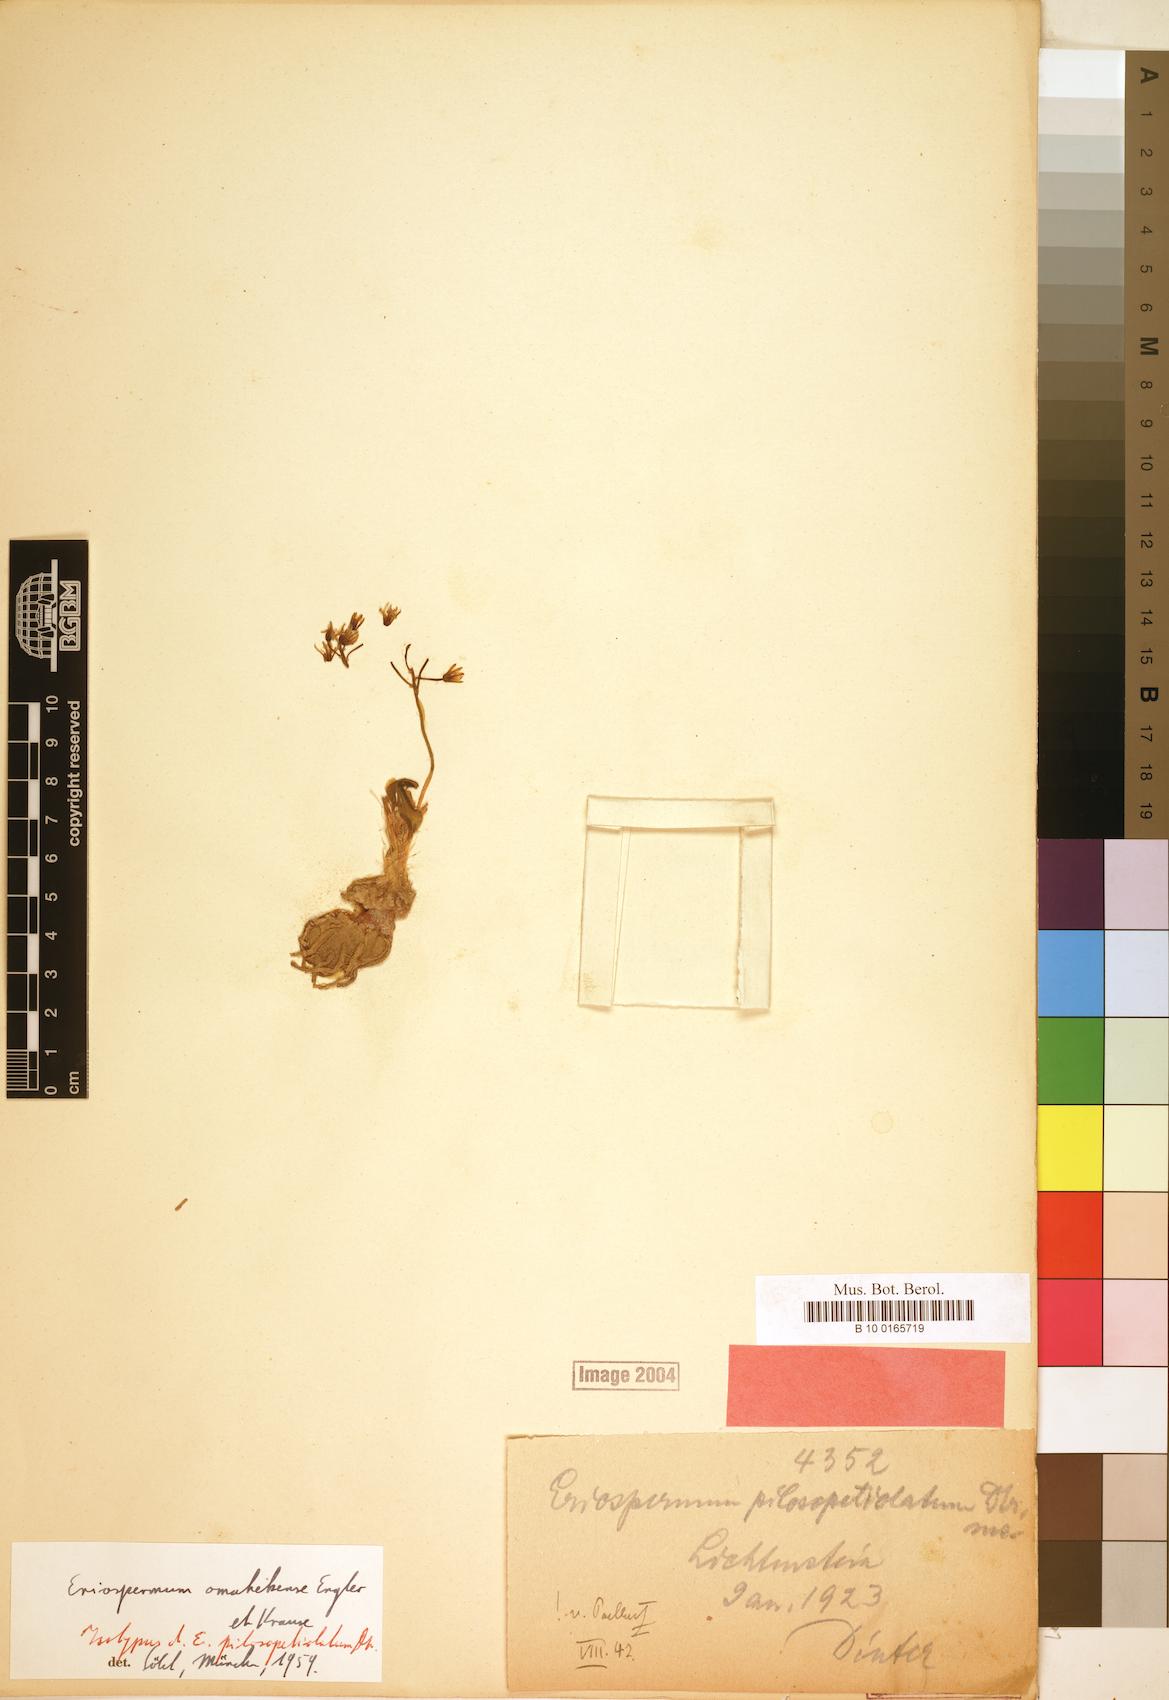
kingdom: Plantae
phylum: Tracheophyta
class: Liliopsida
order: Asparagales
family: Asparagaceae
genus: Eriospermum
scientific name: Eriospermum mackenii
